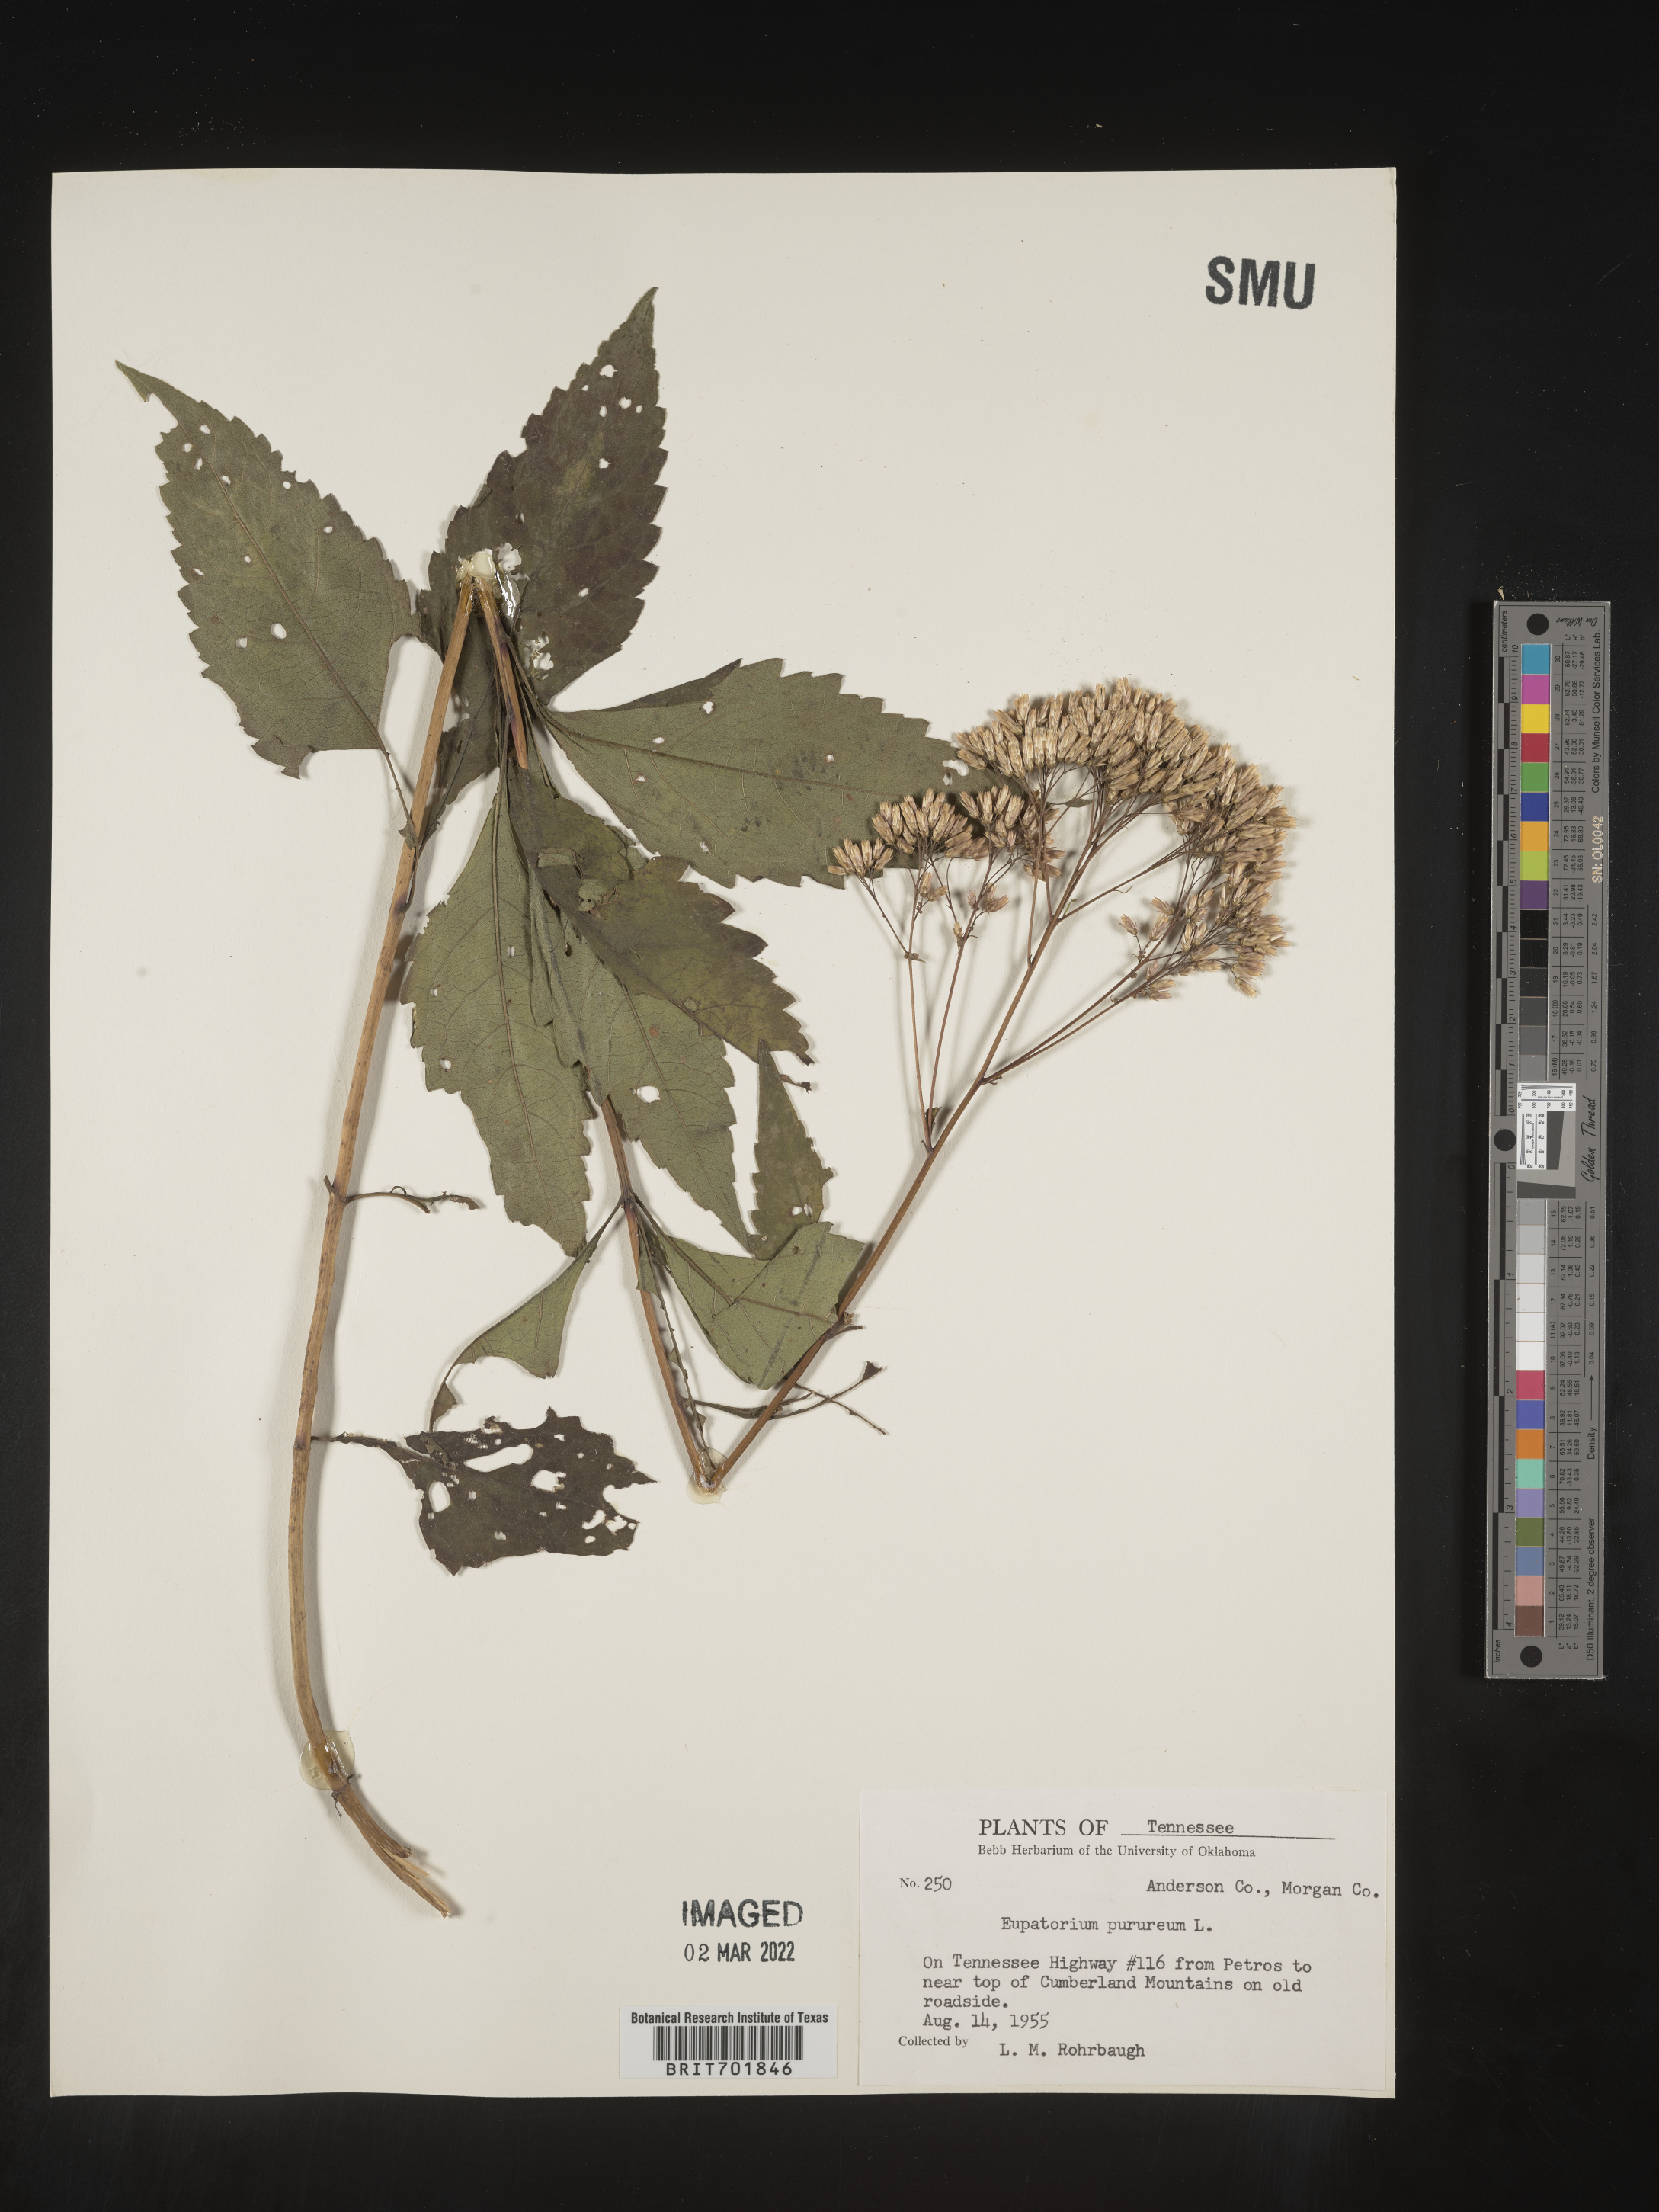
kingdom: Plantae
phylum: Tracheophyta
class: Magnoliopsida
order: Asterales
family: Asteraceae
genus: Eupatorium
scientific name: Eupatorium quaternum
